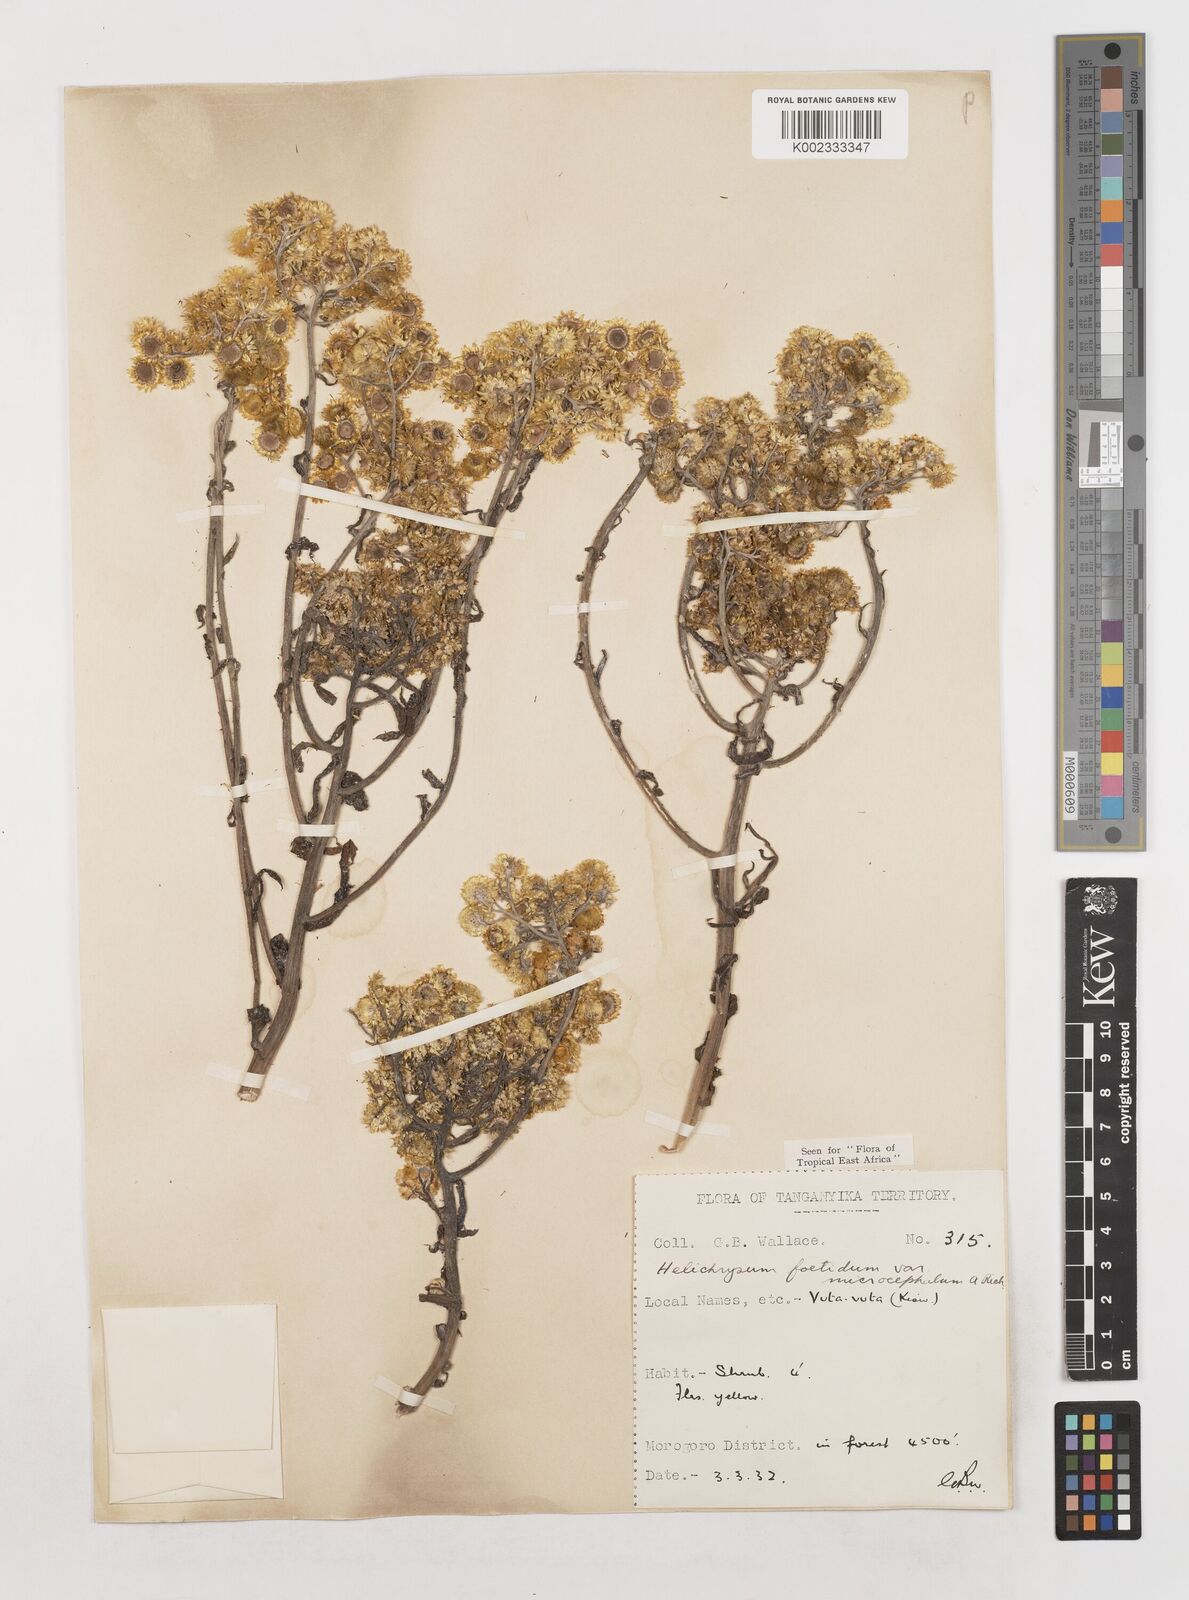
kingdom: Plantae
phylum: Tracheophyta
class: Magnoliopsida
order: Asterales
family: Asteraceae
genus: Helichrysum
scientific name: Helichrysum foetidum
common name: Stinking everlasting
